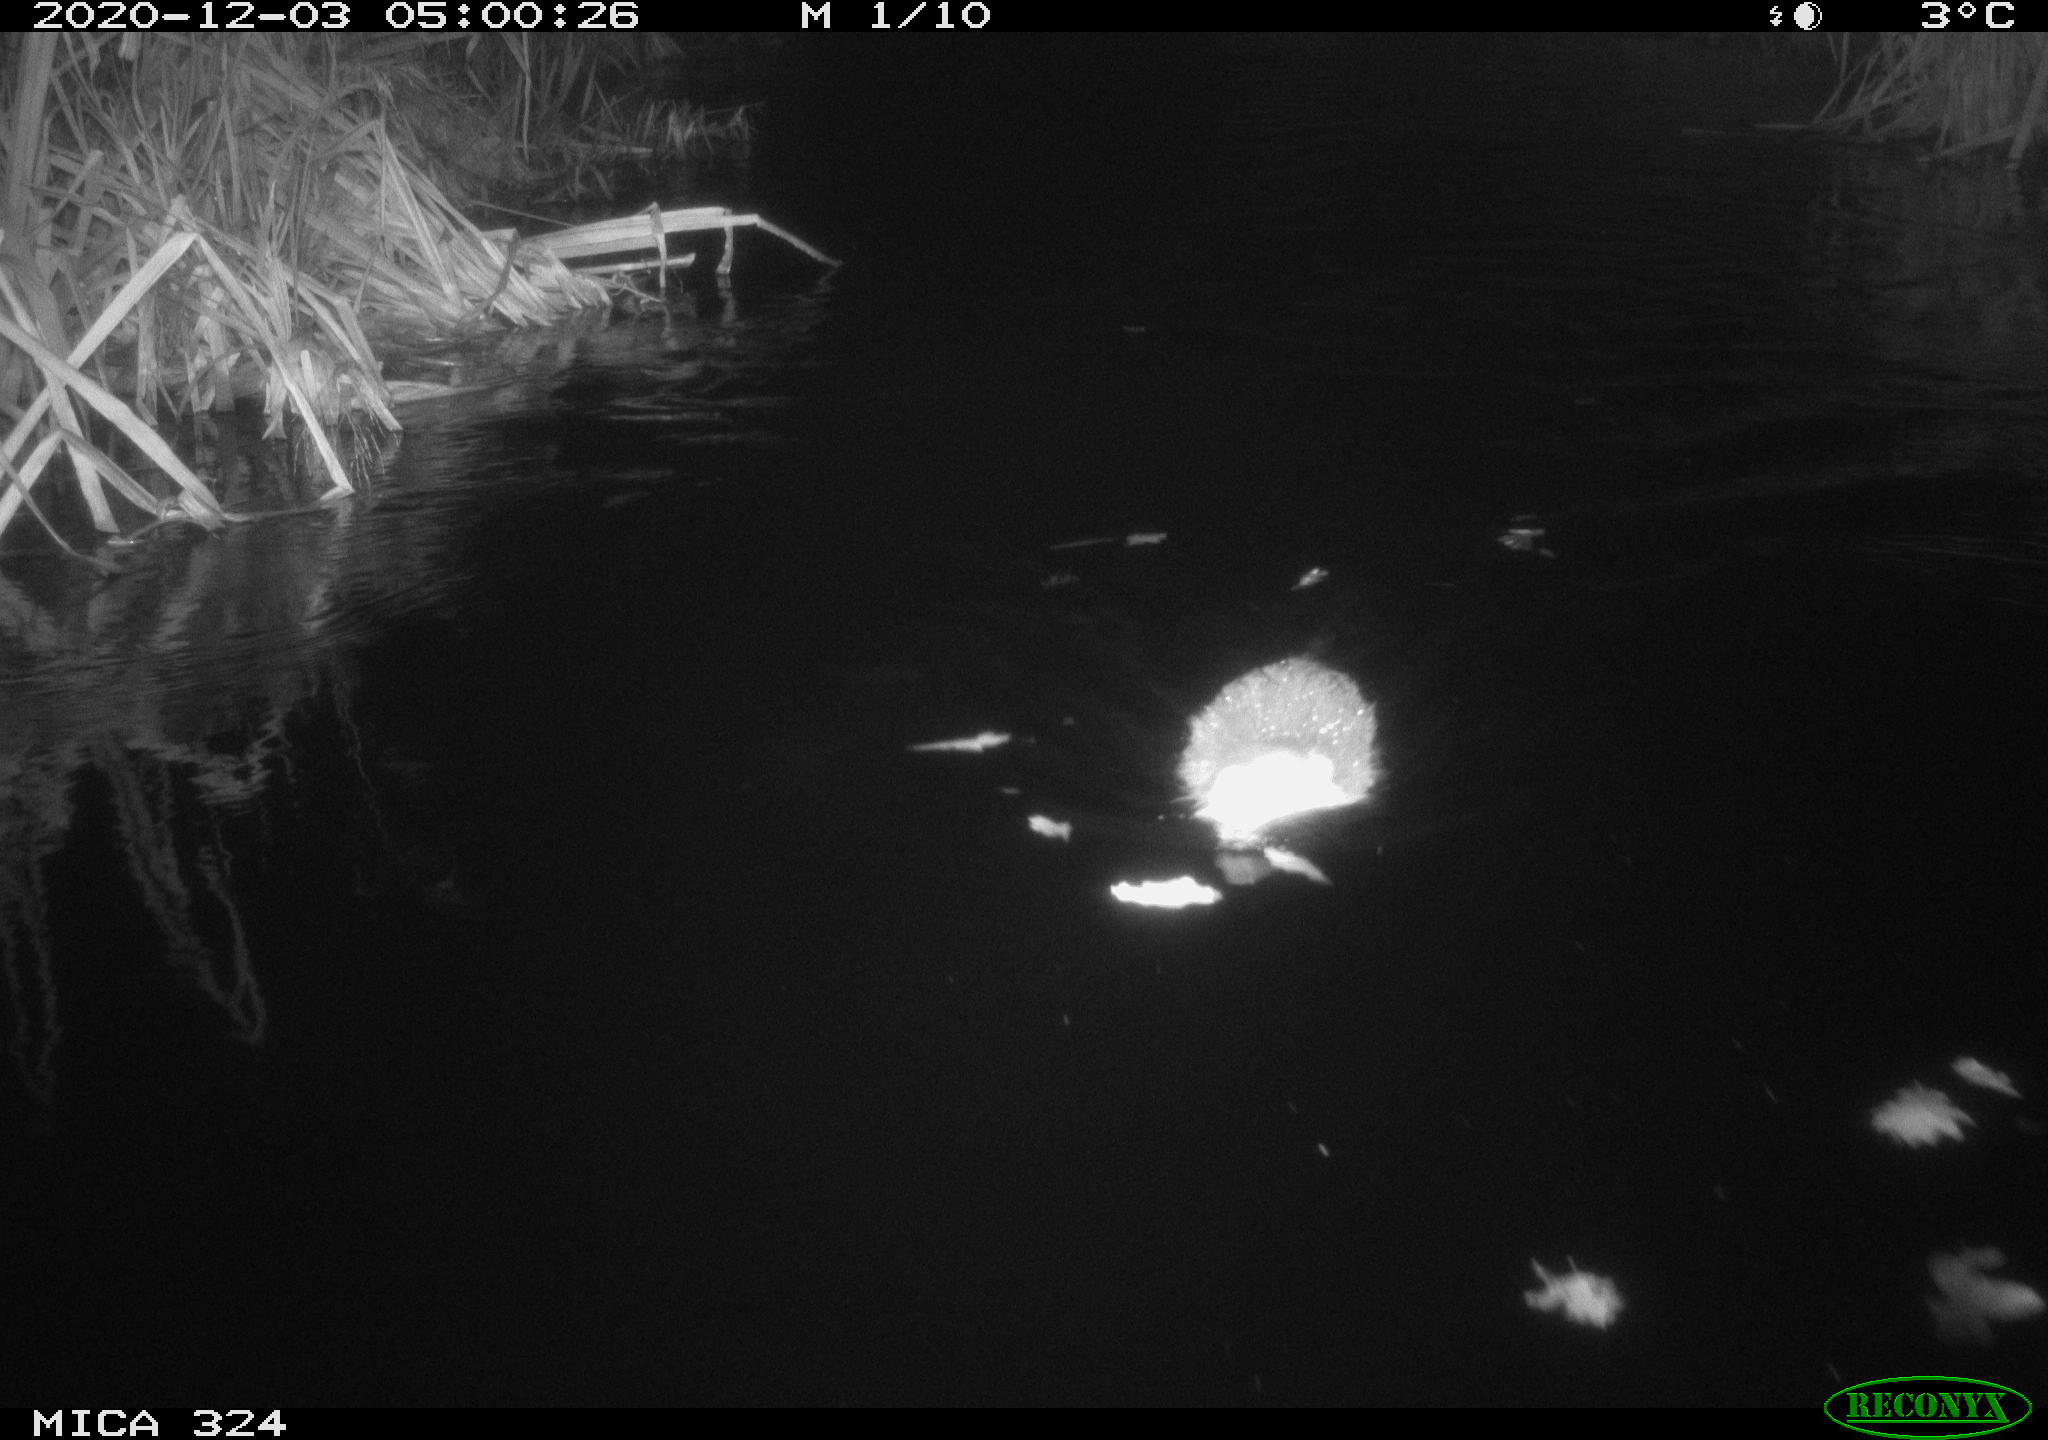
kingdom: Animalia
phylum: Chordata
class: Mammalia
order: Rodentia
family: Myocastoridae
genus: Myocastor
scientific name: Myocastor coypus
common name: Coypu
